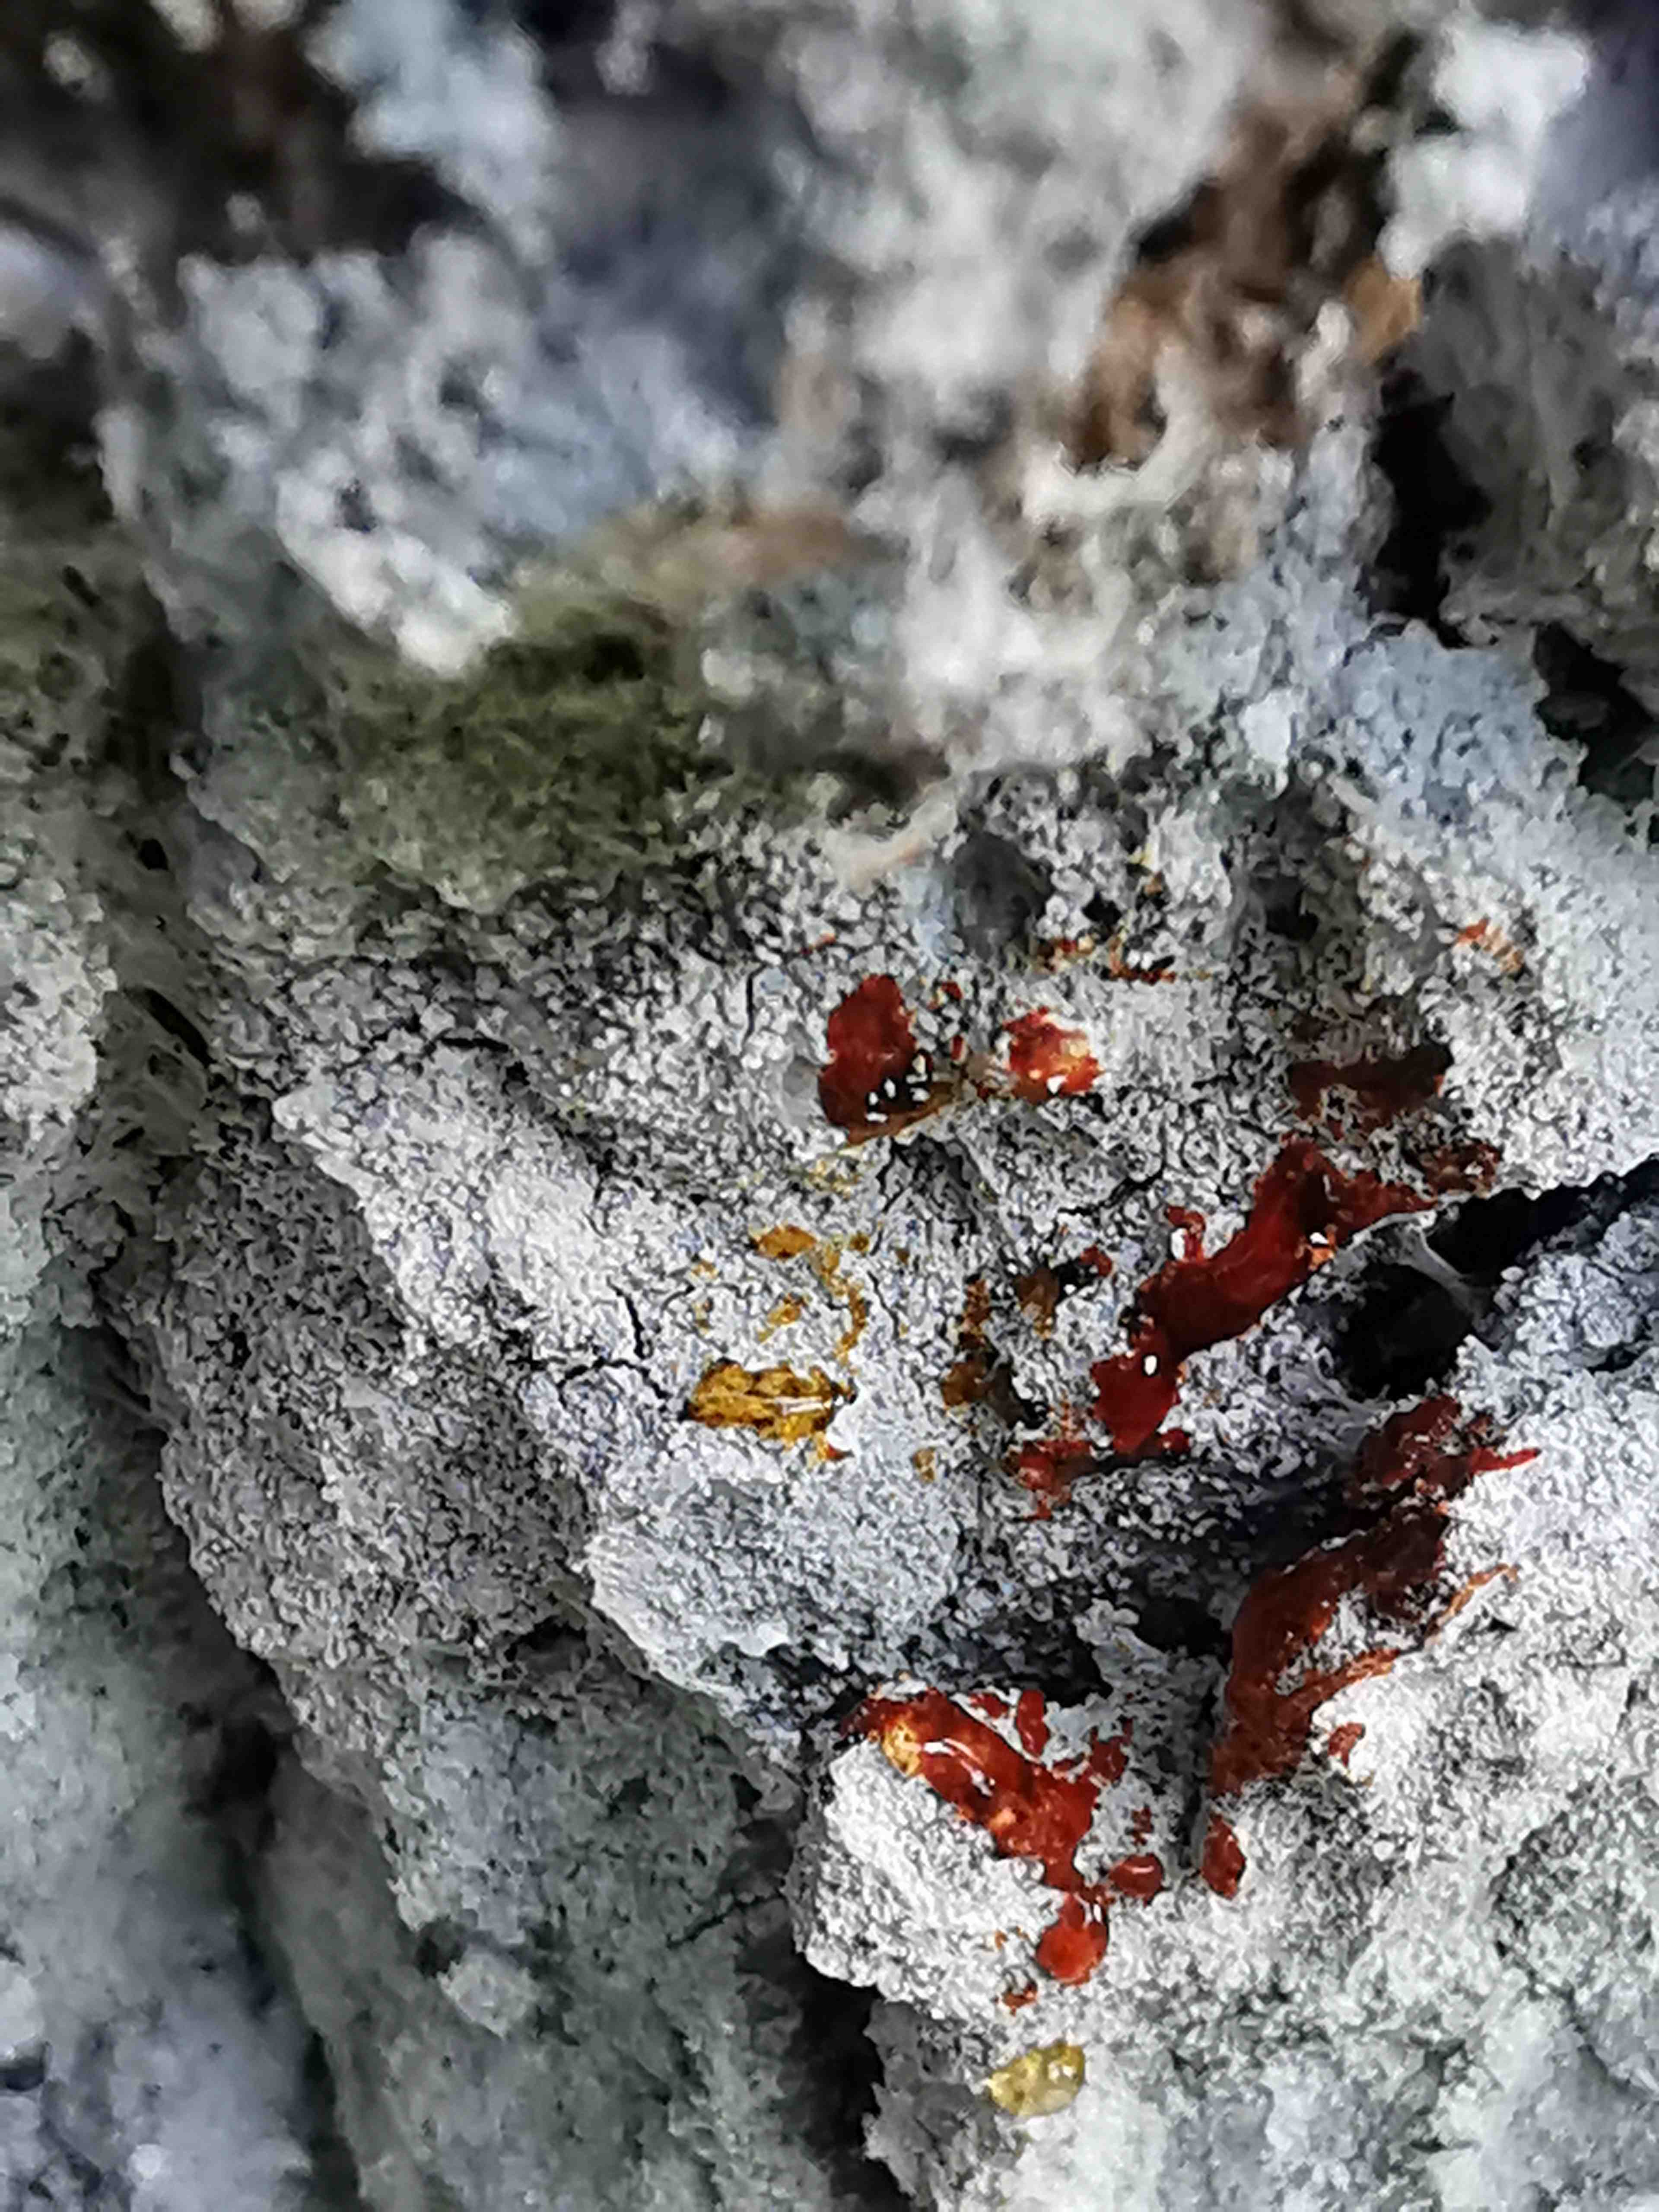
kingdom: Fungi
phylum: Ascomycota
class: Lecanoromycetes
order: Ostropales
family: Phlyctidaceae
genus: Phlyctis
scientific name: Phlyctis argena
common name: almindelig sølvlav
